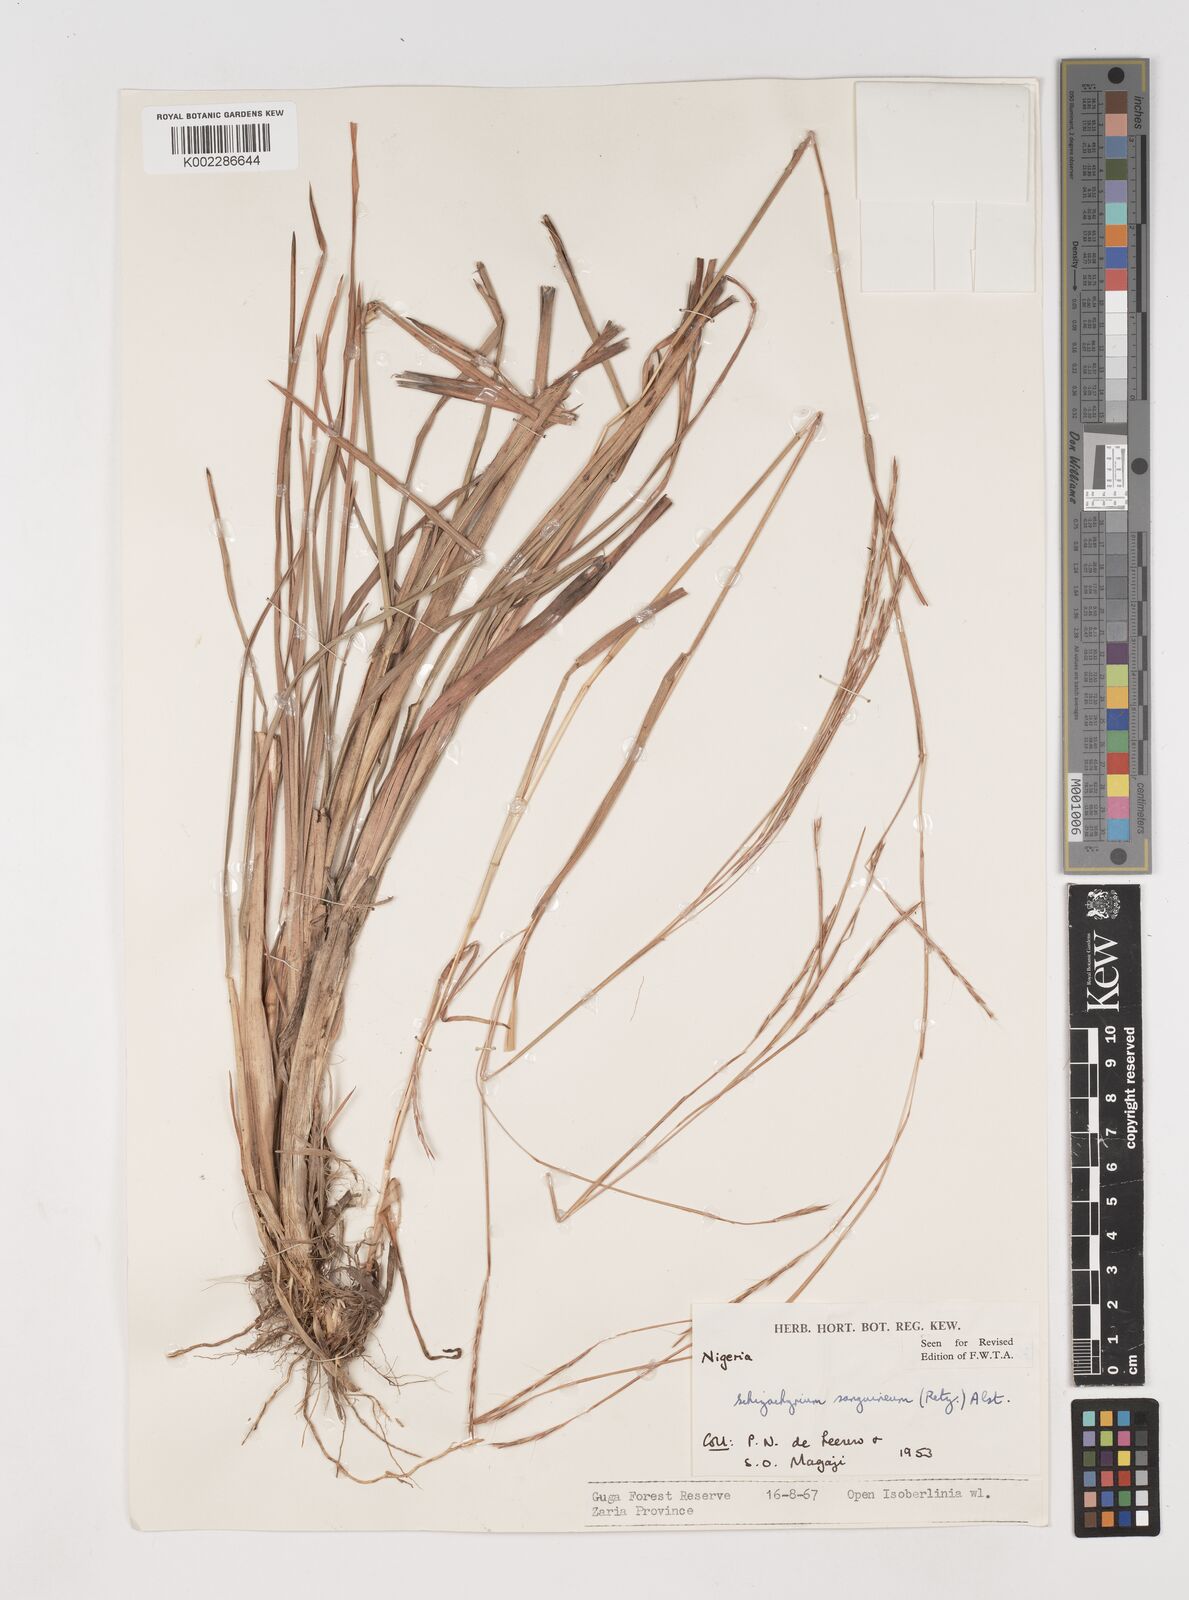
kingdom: Plantae
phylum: Tracheophyta
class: Liliopsida
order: Poales
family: Poaceae
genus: Schizachyrium
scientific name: Schizachyrium sanguineum
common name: Crimson bluestem
